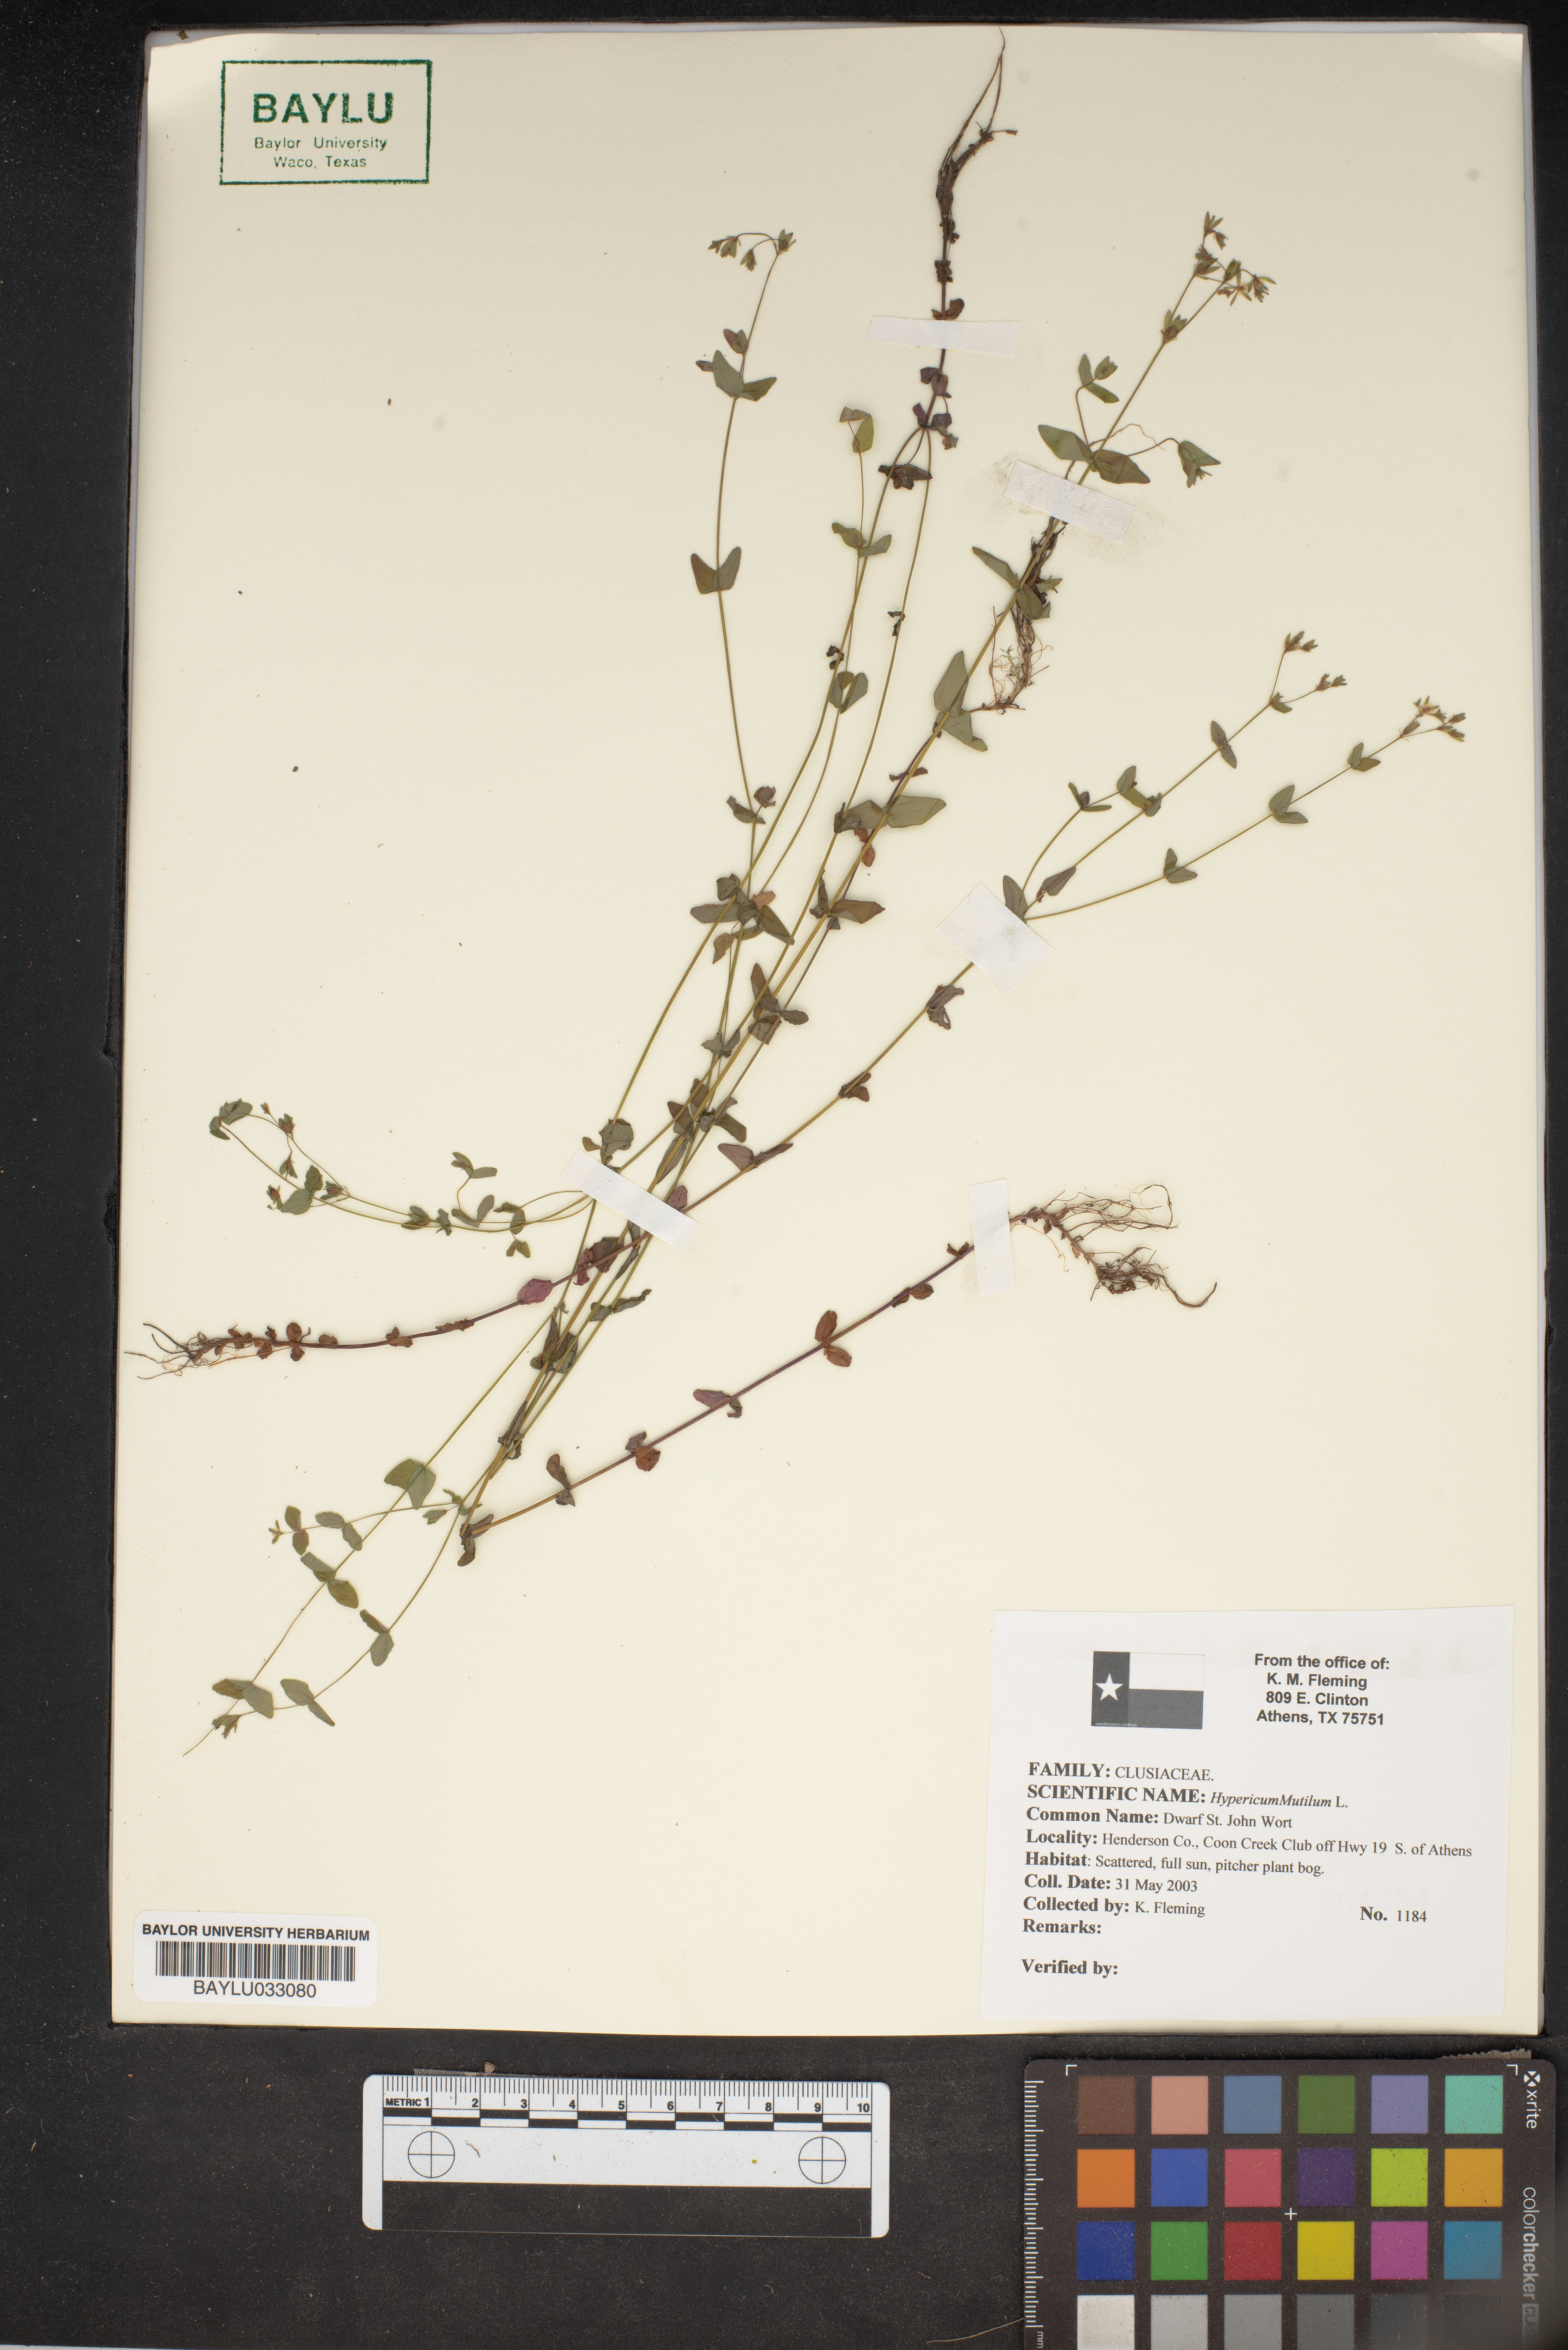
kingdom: Plantae
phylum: Tracheophyta
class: Magnoliopsida
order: Malpighiales
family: Hypericaceae
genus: Hypericum
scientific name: Hypericum mutilum
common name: Dwarf st. john's-wort
